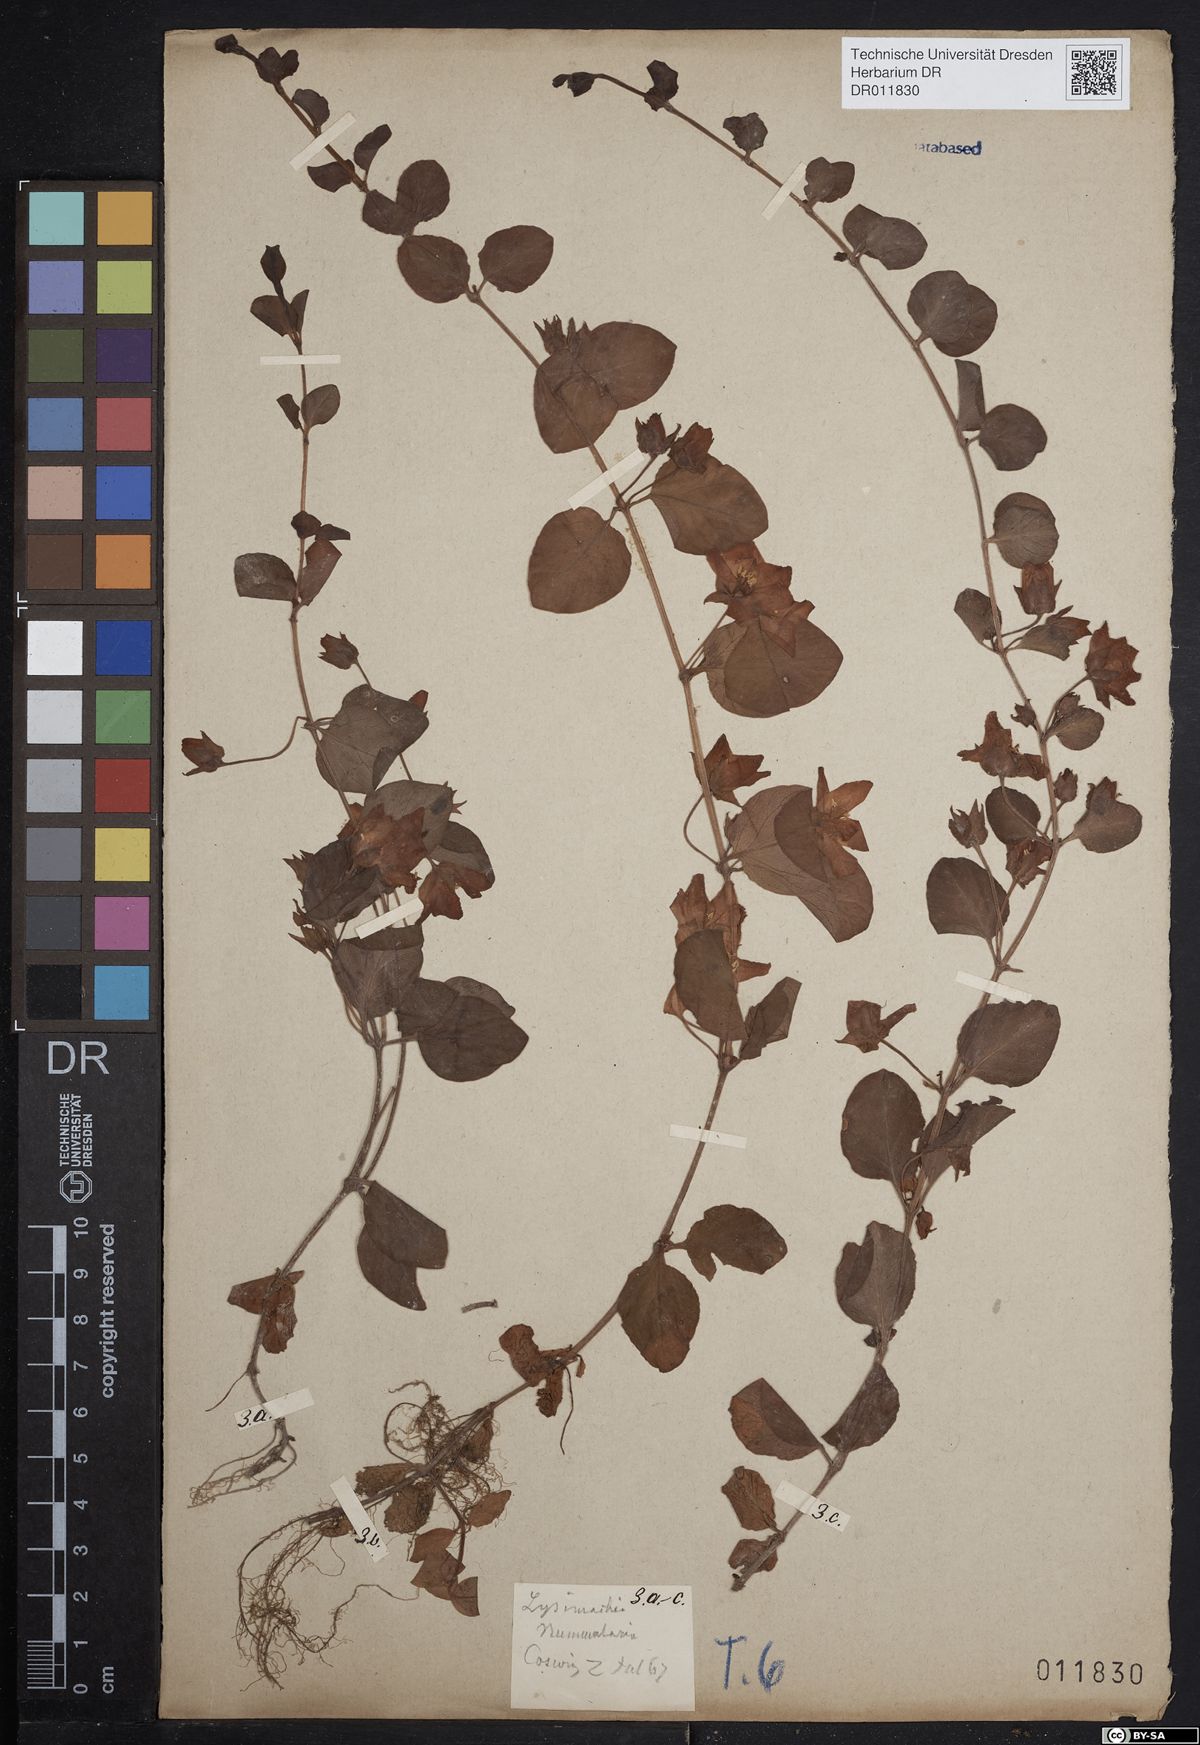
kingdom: Plantae
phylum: Tracheophyta
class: Magnoliopsida
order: Ericales
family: Primulaceae
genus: Lysimachia
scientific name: Lysimachia nummularia
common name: Moneywort
